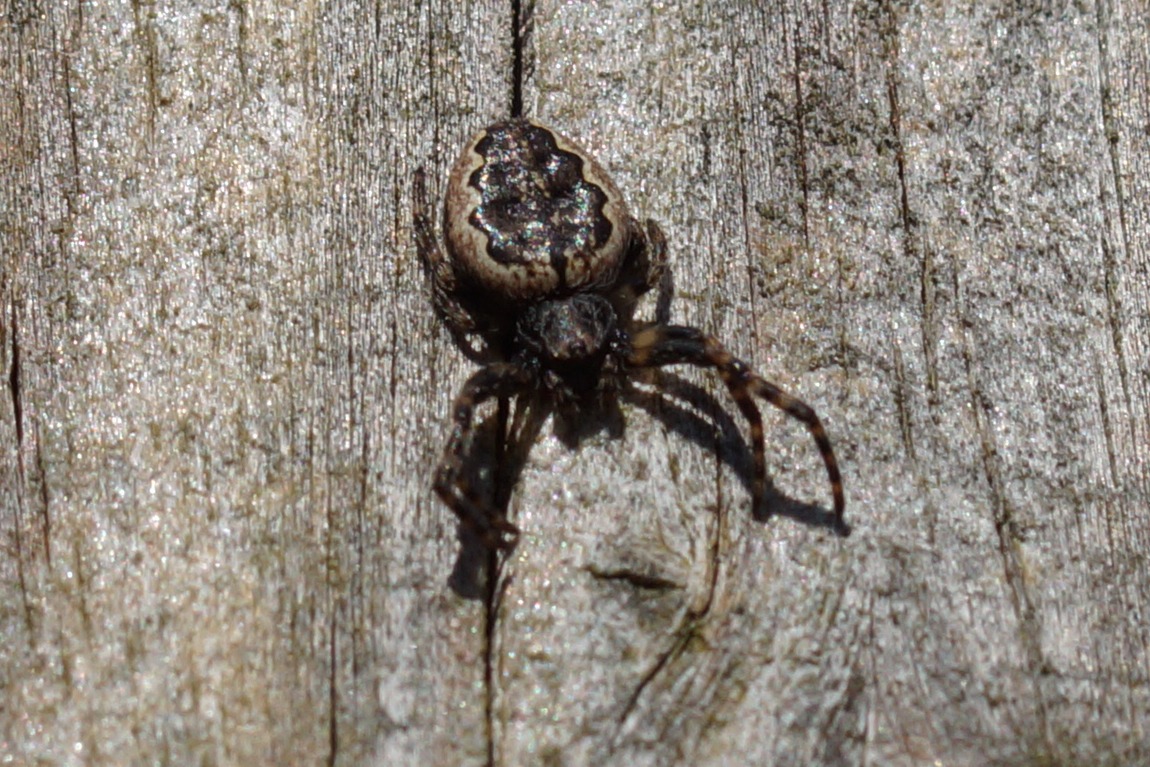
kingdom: Animalia
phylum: Arthropoda
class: Arachnida
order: Araneae
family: Araneidae
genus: Nuctenea
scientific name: Nuctenea umbratica
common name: Flad hjulspinder
